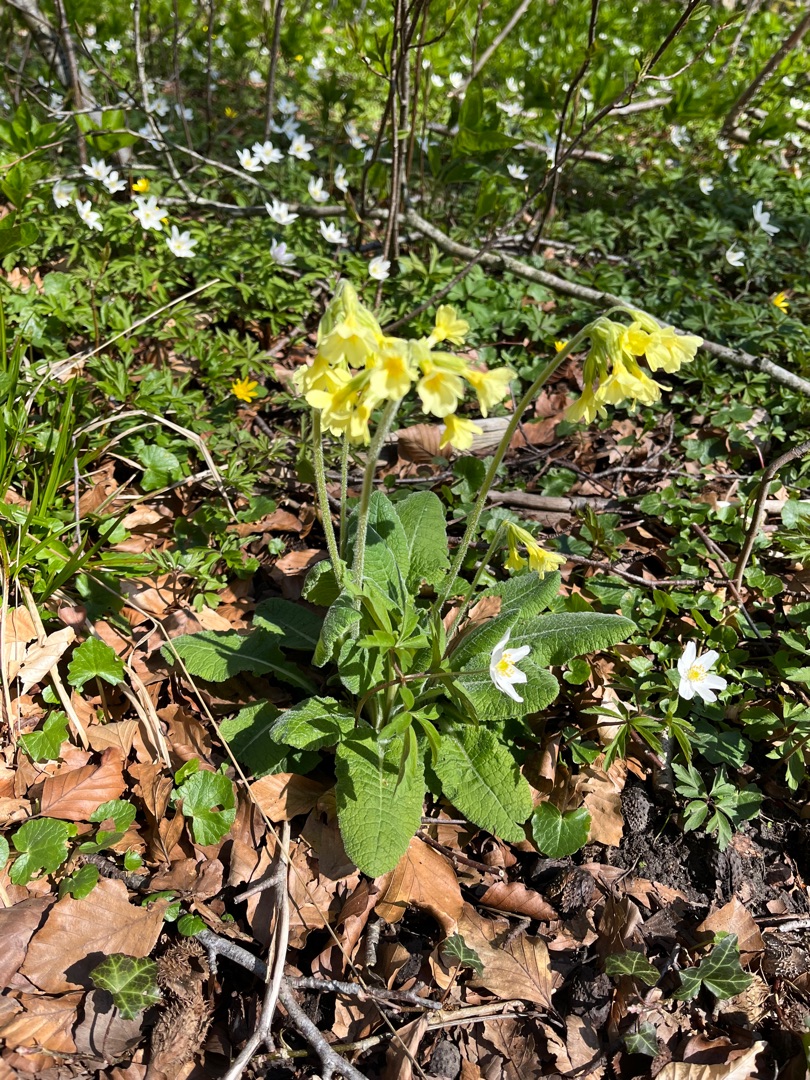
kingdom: Plantae
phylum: Tracheophyta
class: Magnoliopsida
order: Ericales
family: Primulaceae
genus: Primula
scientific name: Primula elatior
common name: Fladkravet kodriver
